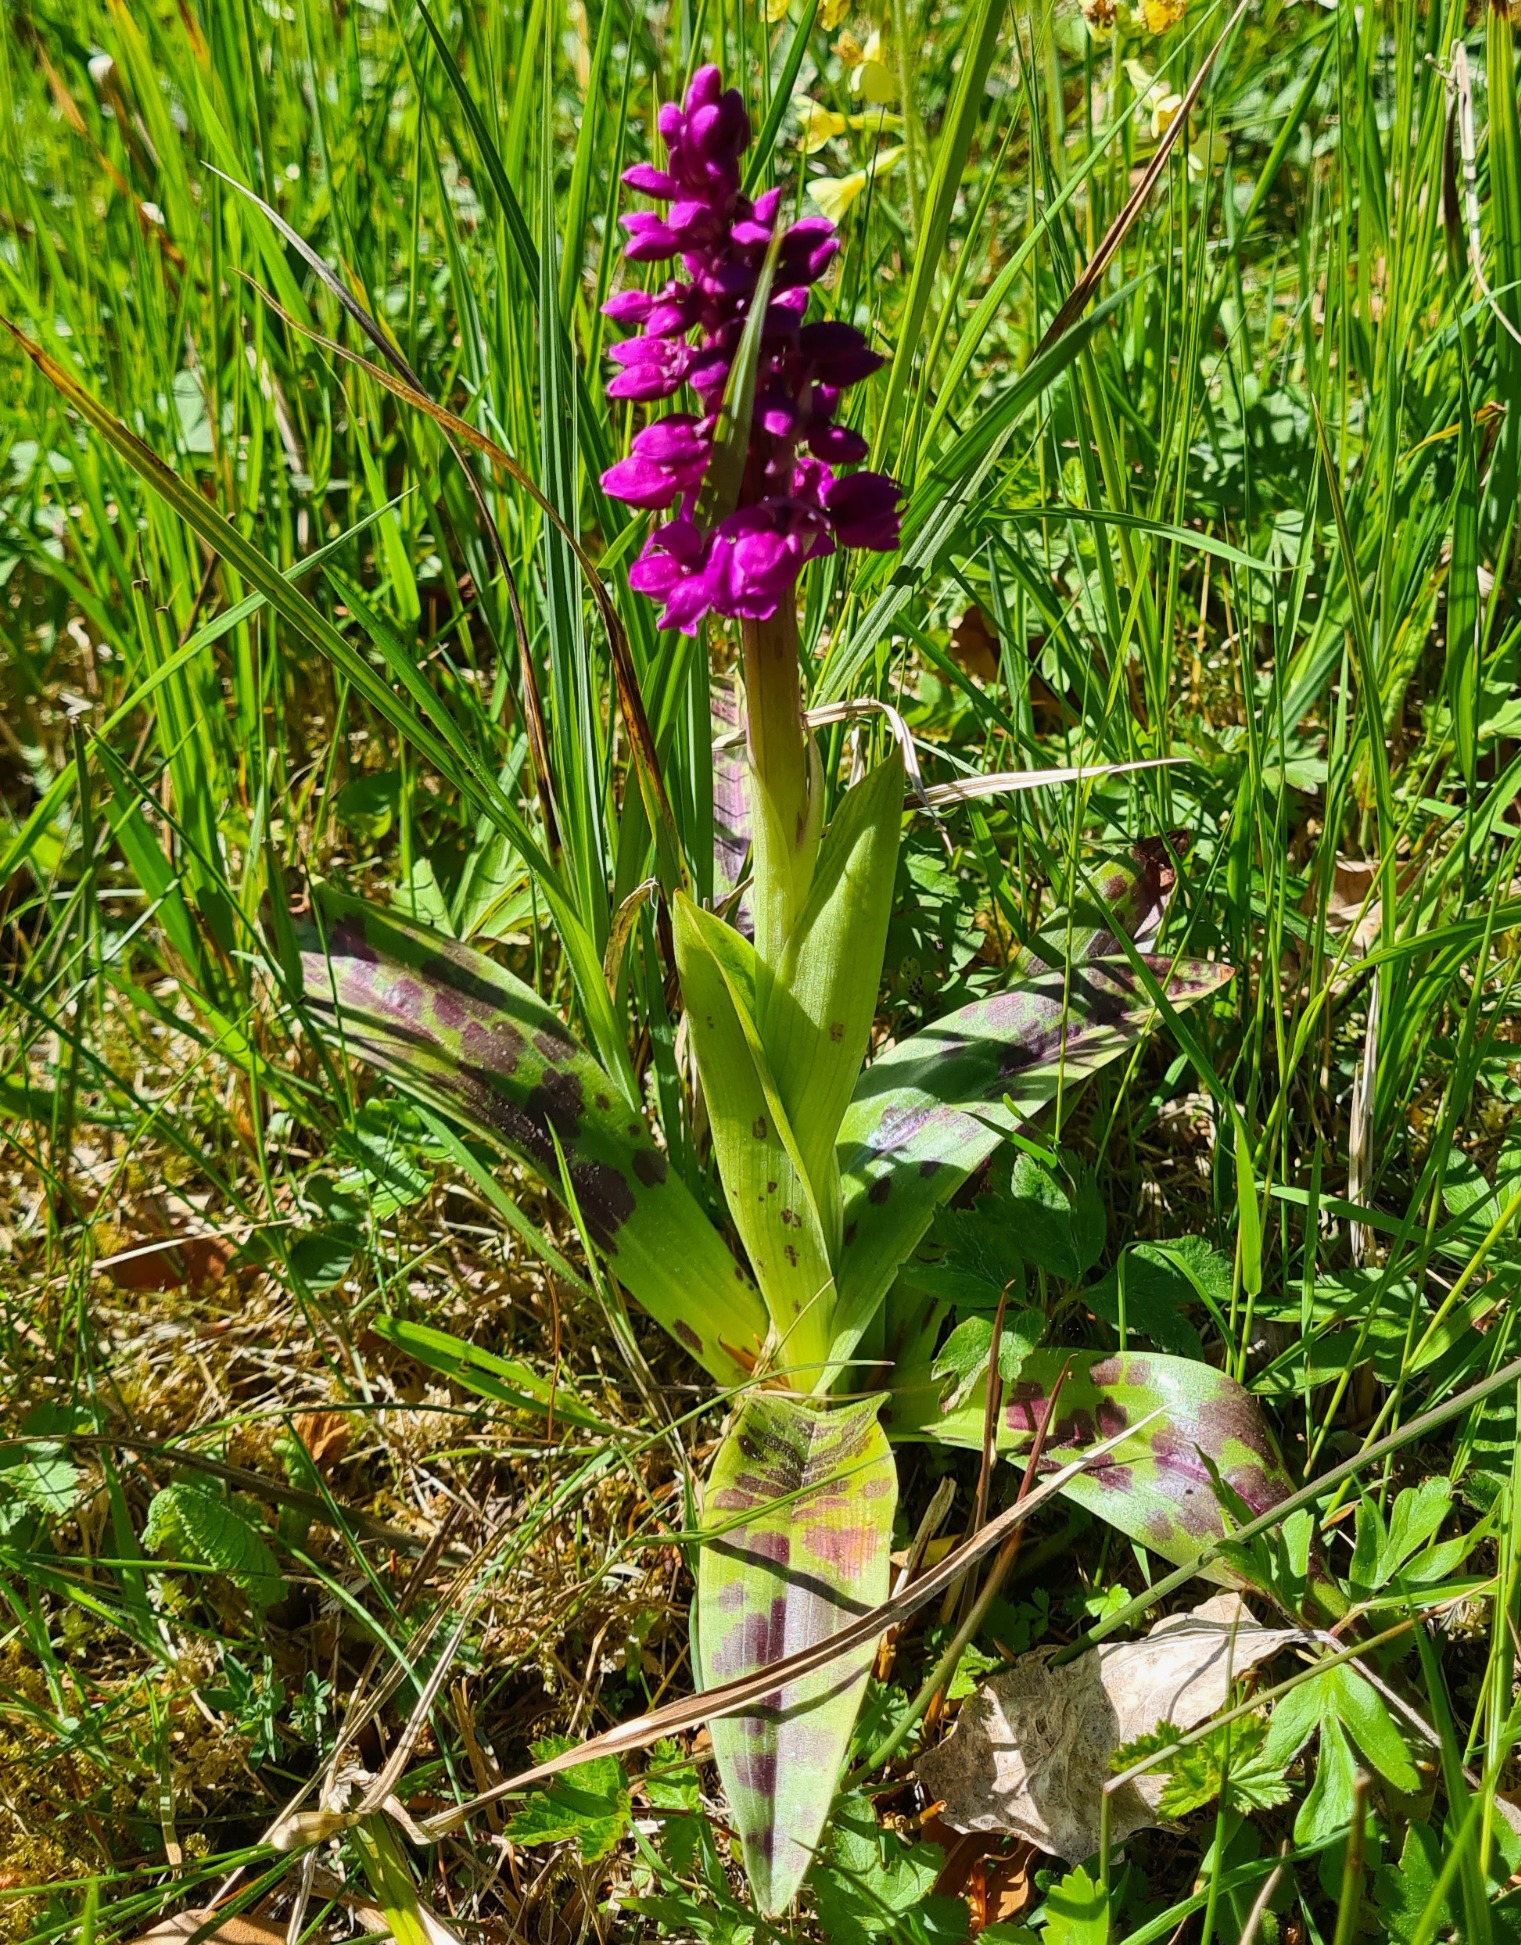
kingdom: Plantae
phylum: Tracheophyta
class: Liliopsida
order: Asparagales
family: Orchidaceae
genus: Orchis
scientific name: Orchis mascula
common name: Tyndakset gøgeurt
